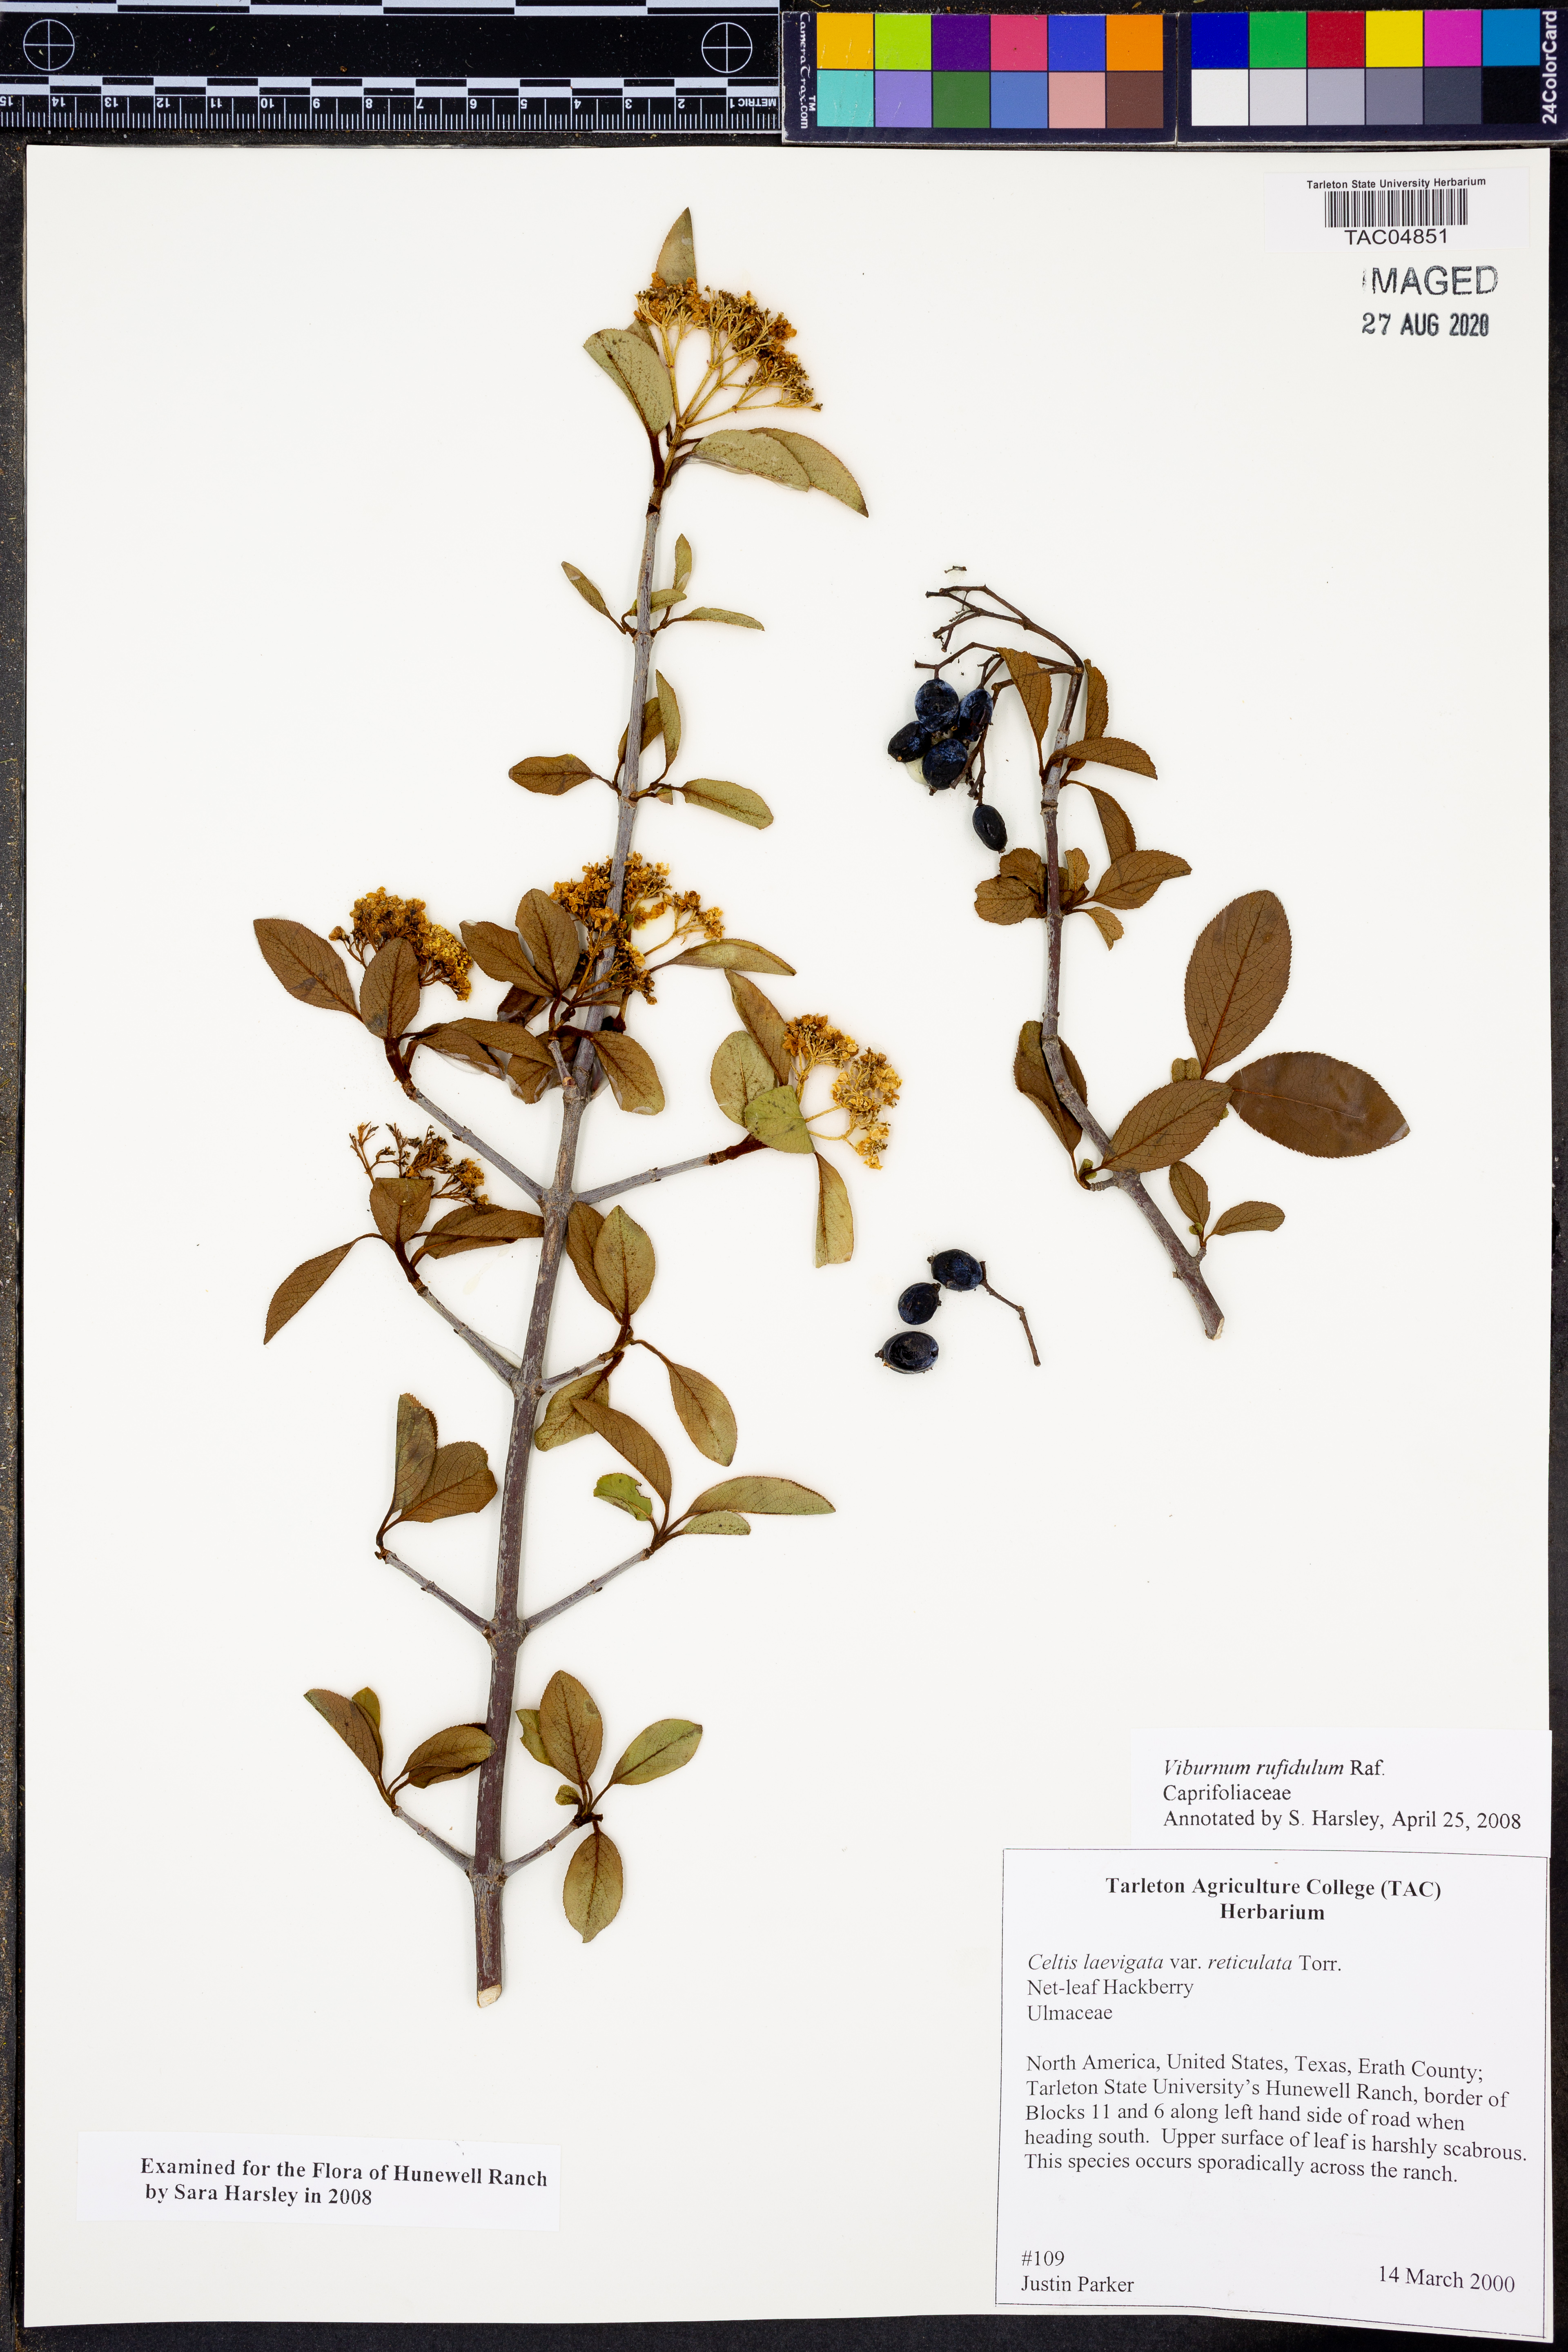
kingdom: Plantae
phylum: Tracheophyta
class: Magnoliopsida
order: Dipsacales
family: Viburnaceae
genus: Viburnum
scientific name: Viburnum rufidulum
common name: Blue haw
